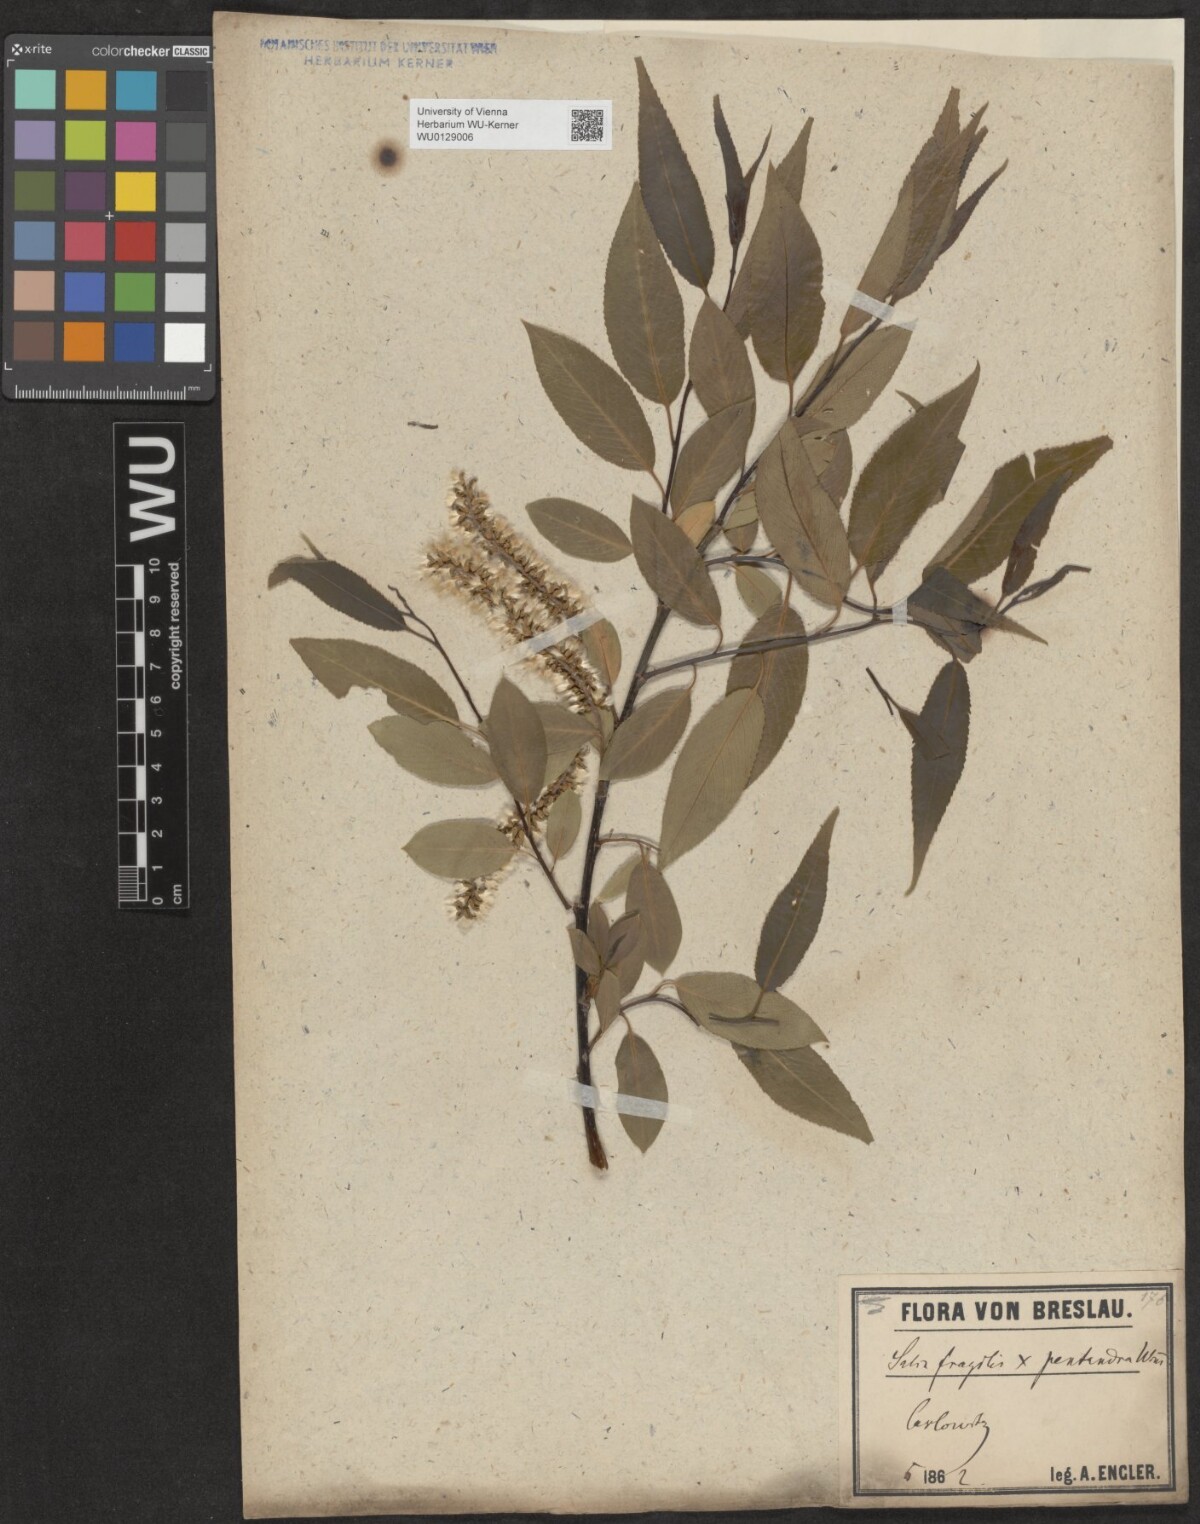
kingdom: Plantae
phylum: Tracheophyta
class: Magnoliopsida
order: Malpighiales
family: Salicaceae
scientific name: Salicaceae
